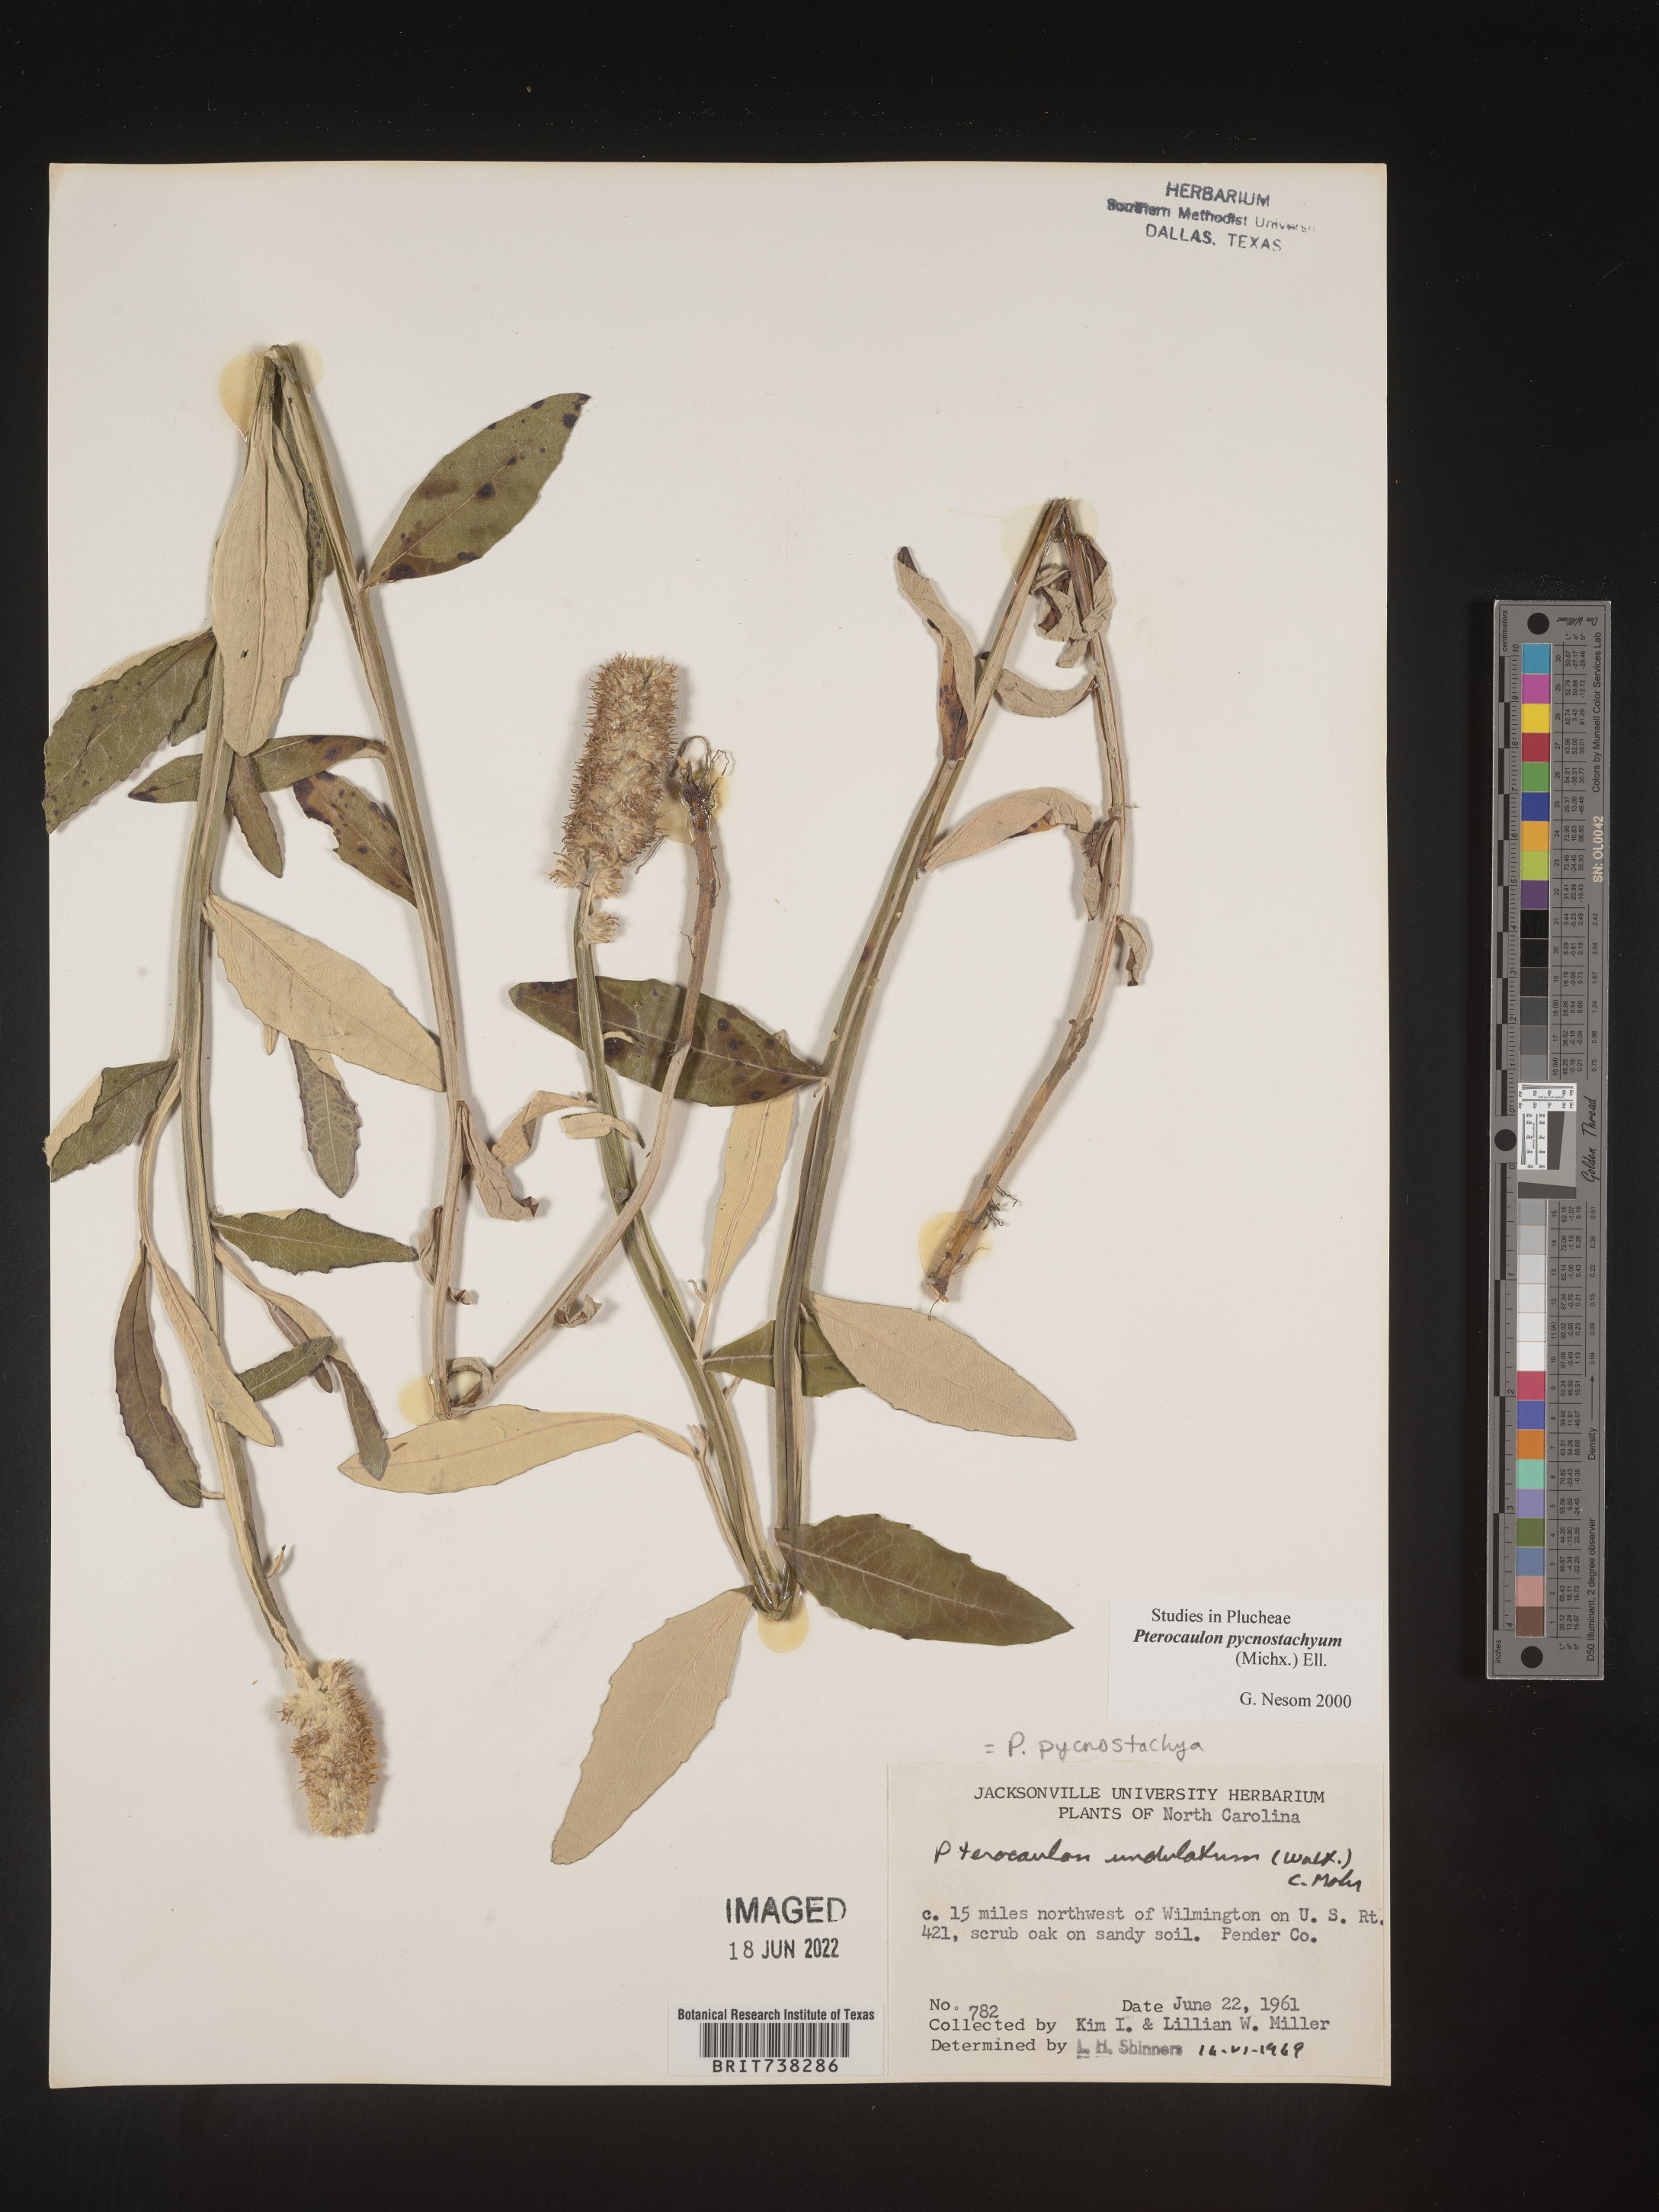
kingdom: Plantae
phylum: Tracheophyta
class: Magnoliopsida
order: Asterales
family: Asteraceae
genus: Pterocaulon
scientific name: Pterocaulon pycnostachyum
